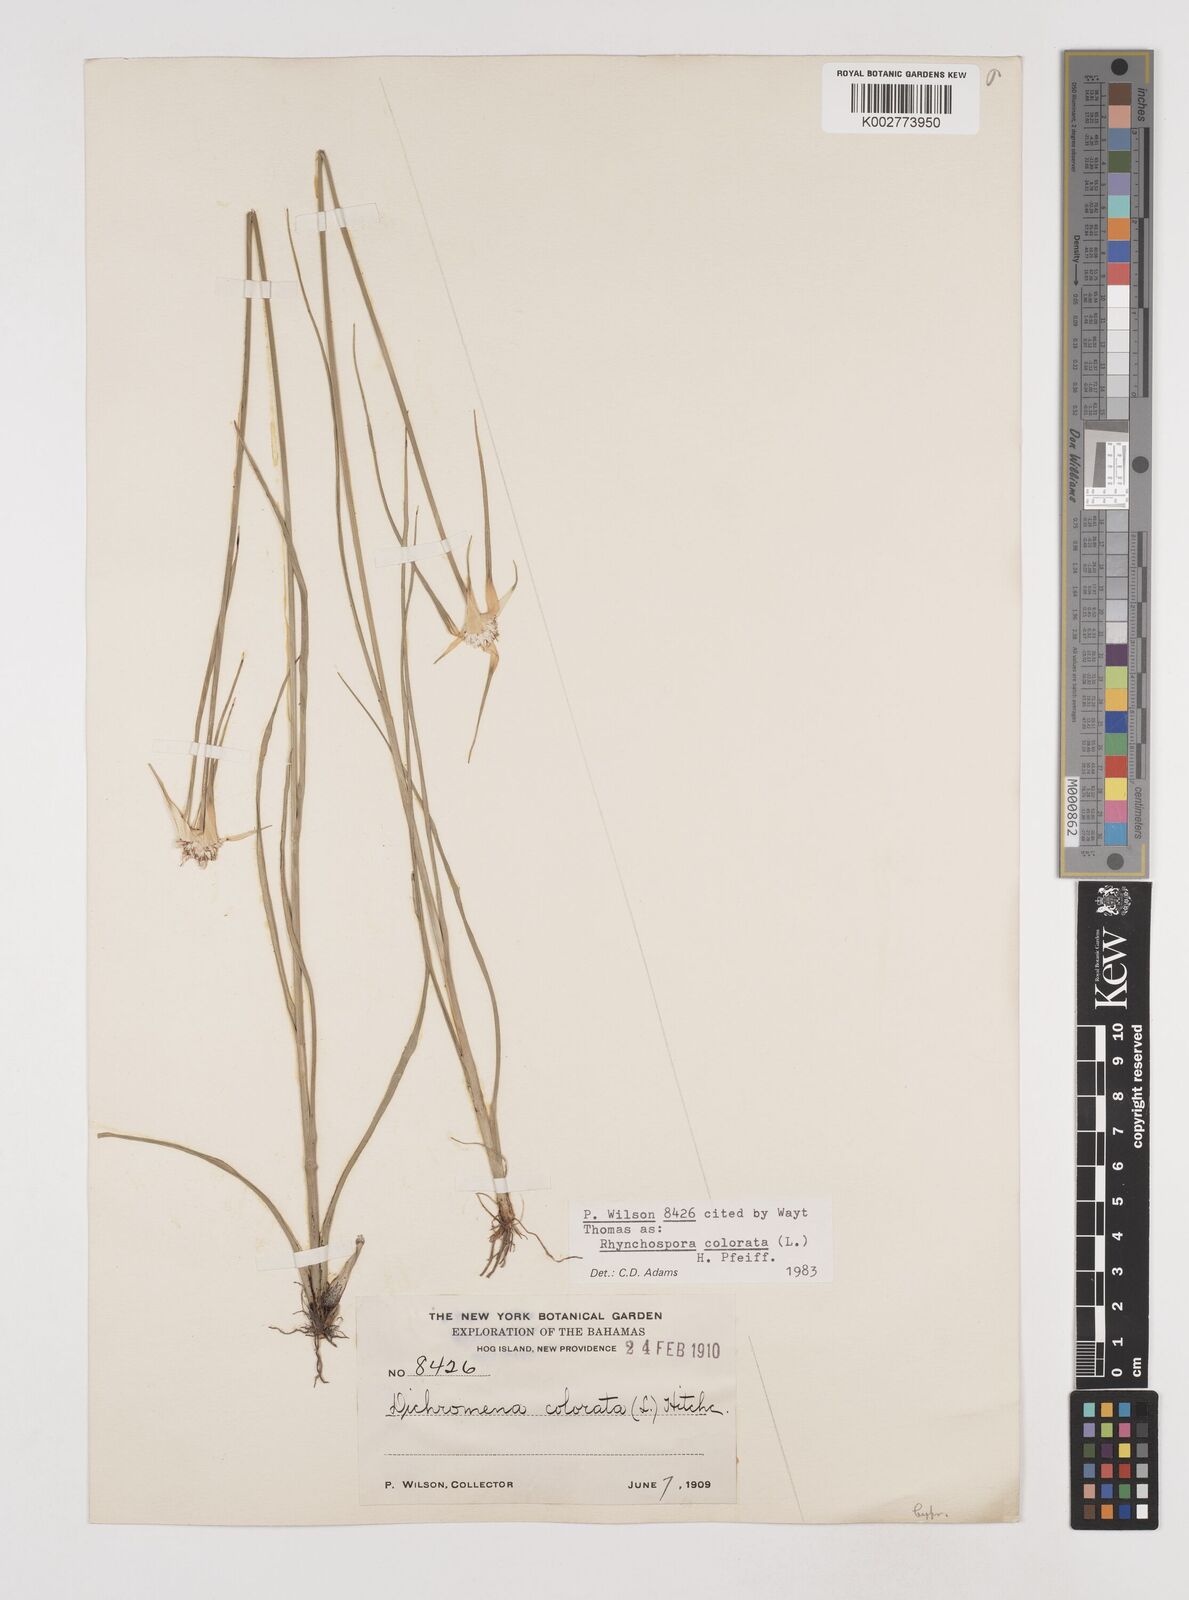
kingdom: Plantae
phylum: Tracheophyta
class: Liliopsida
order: Poales
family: Cyperaceae
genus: Rhynchospora
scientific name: Rhynchospora colorata
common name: Star sedge
